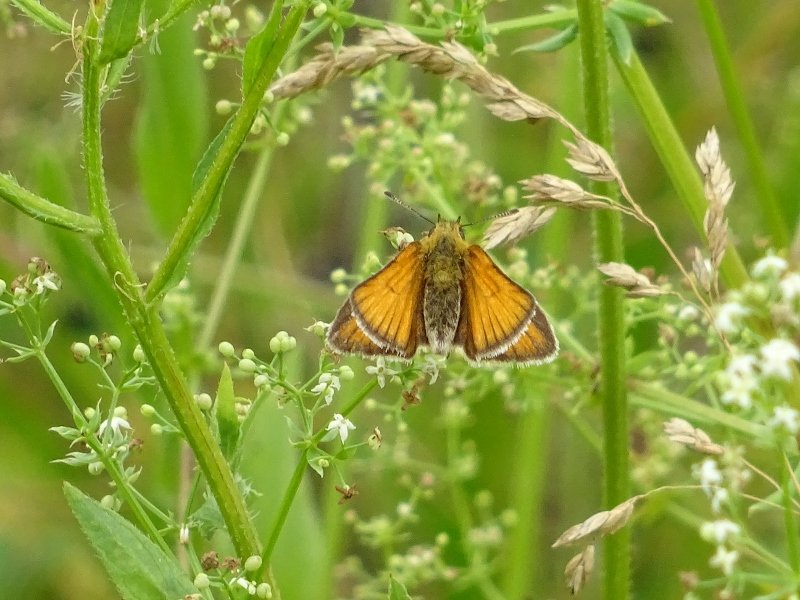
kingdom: Animalia
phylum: Arthropoda
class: Insecta
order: Lepidoptera
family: Hesperiidae
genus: Thymelicus
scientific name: Thymelicus lineola
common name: European Skipper
